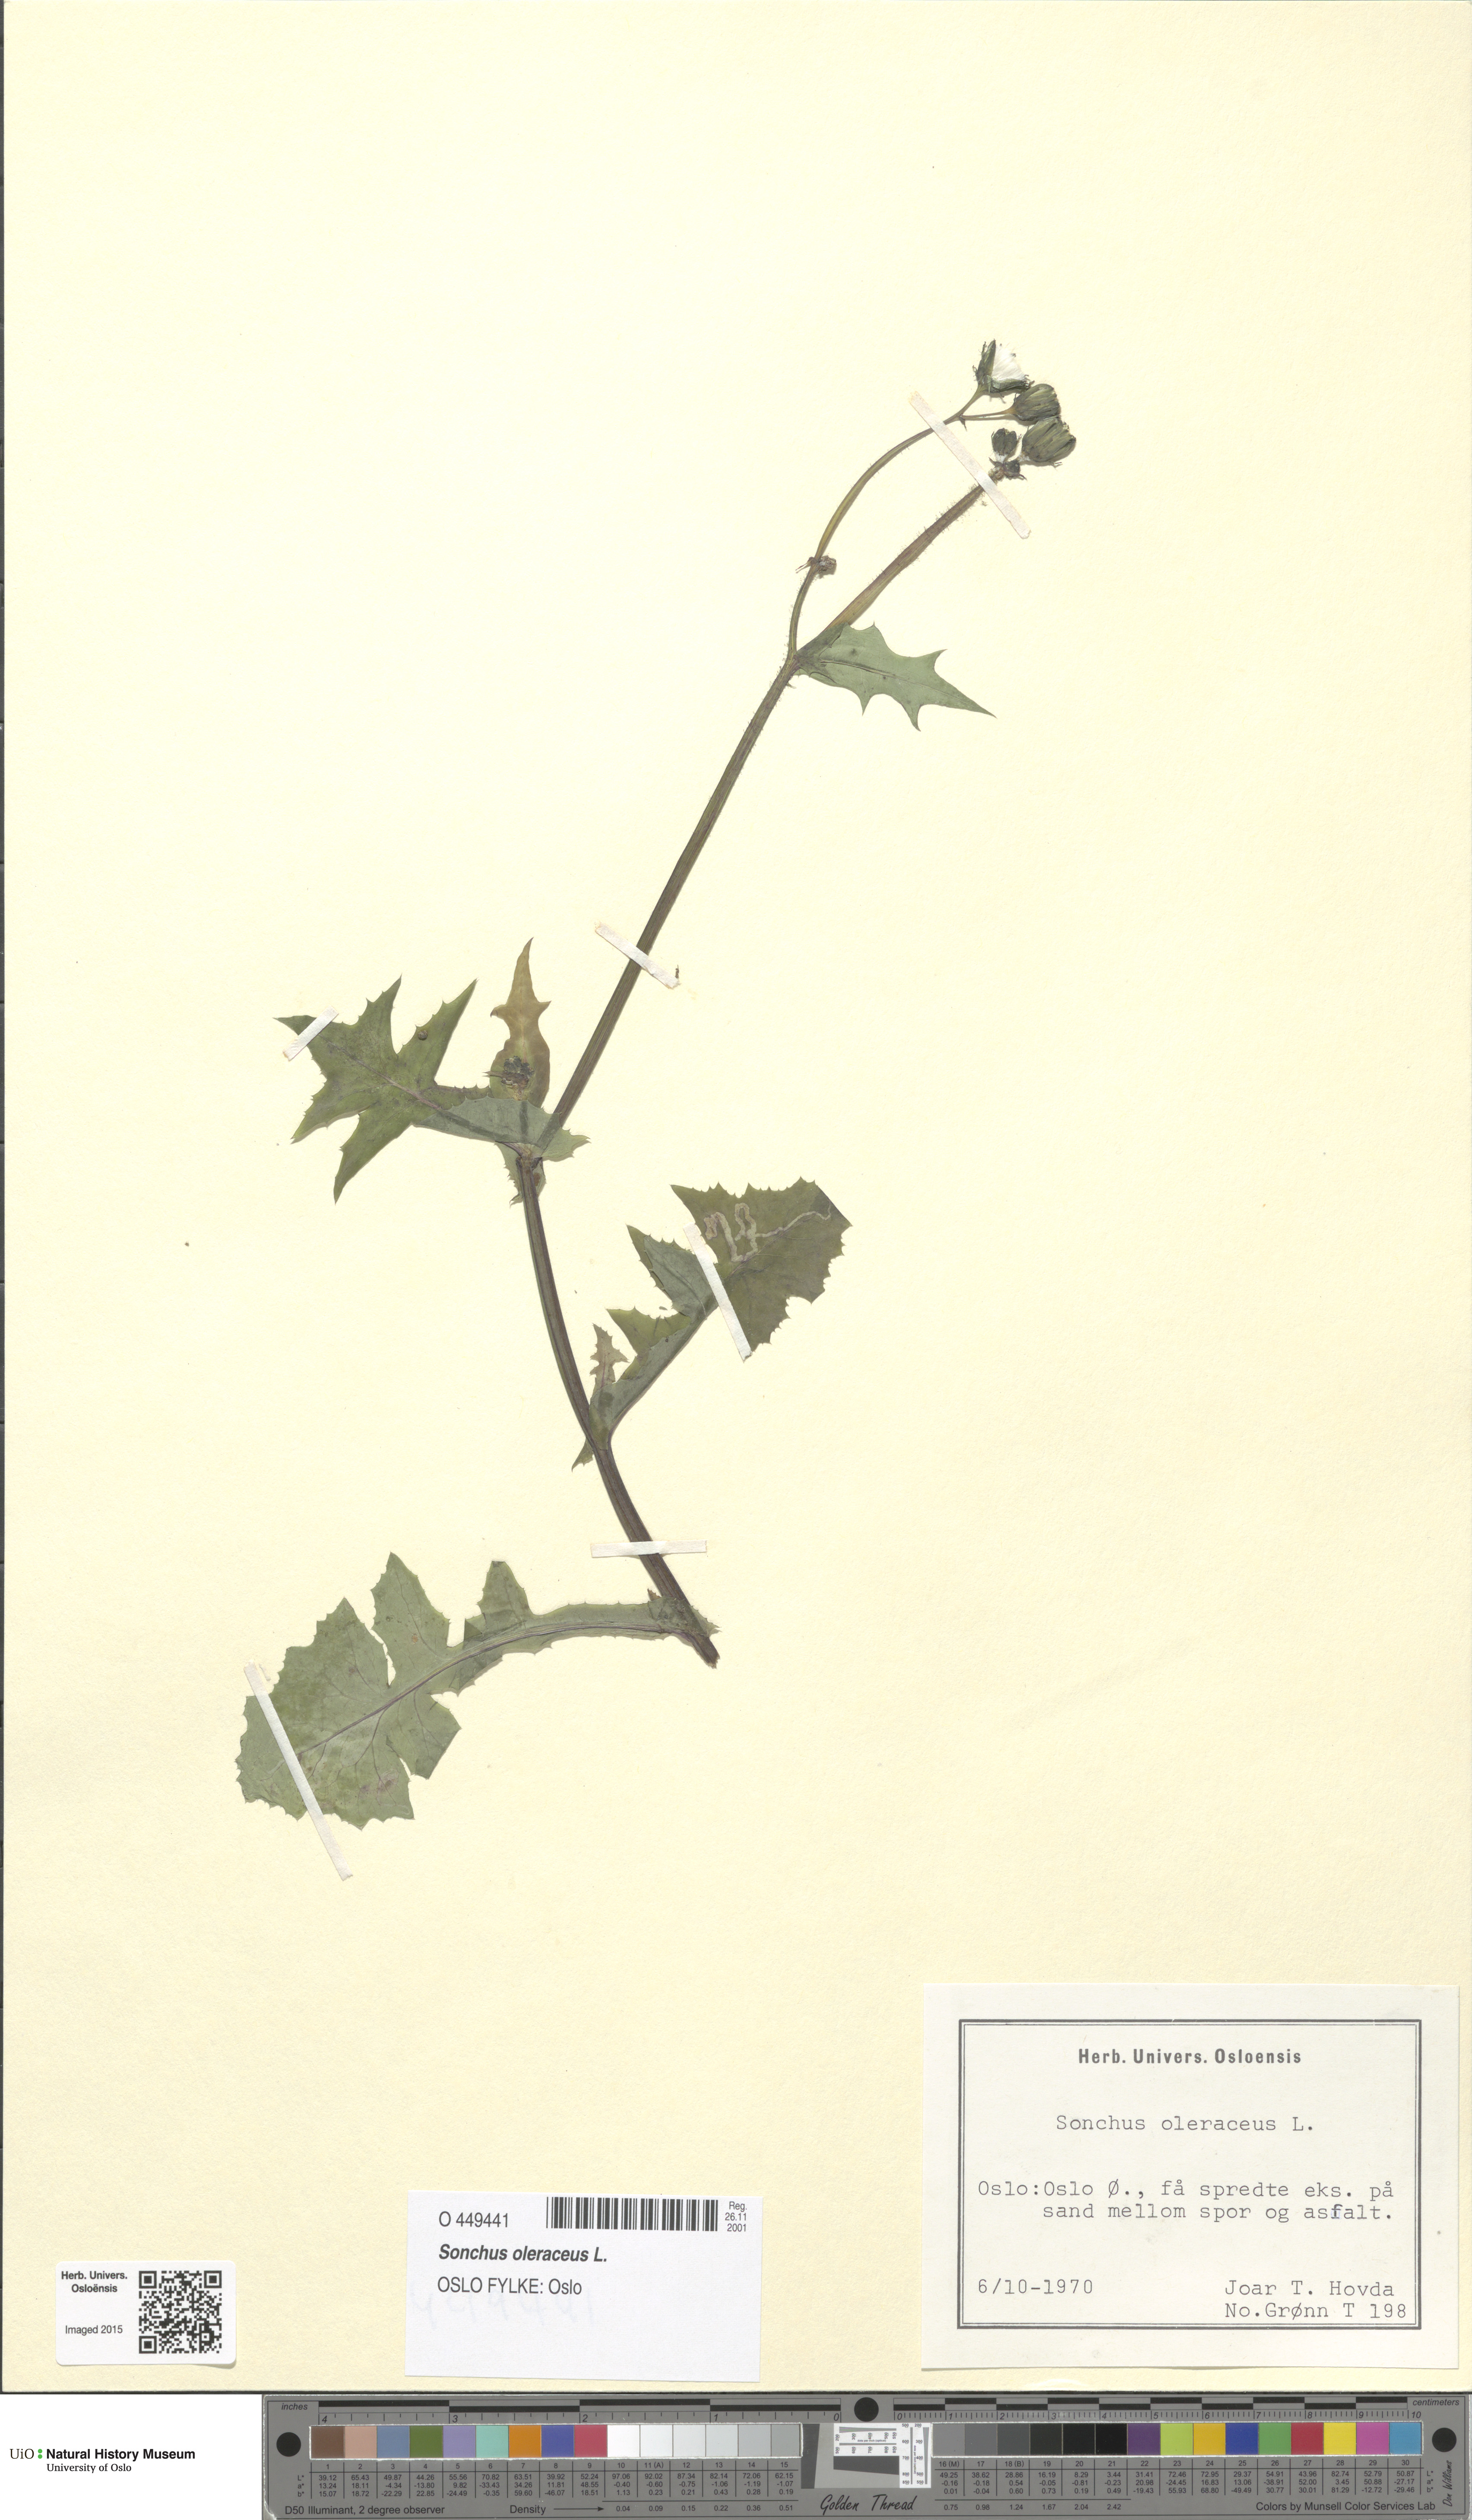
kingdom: Plantae
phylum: Tracheophyta
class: Magnoliopsida
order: Asterales
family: Asteraceae
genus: Sonchus
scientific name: Sonchus oleraceus
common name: Common sowthistle
